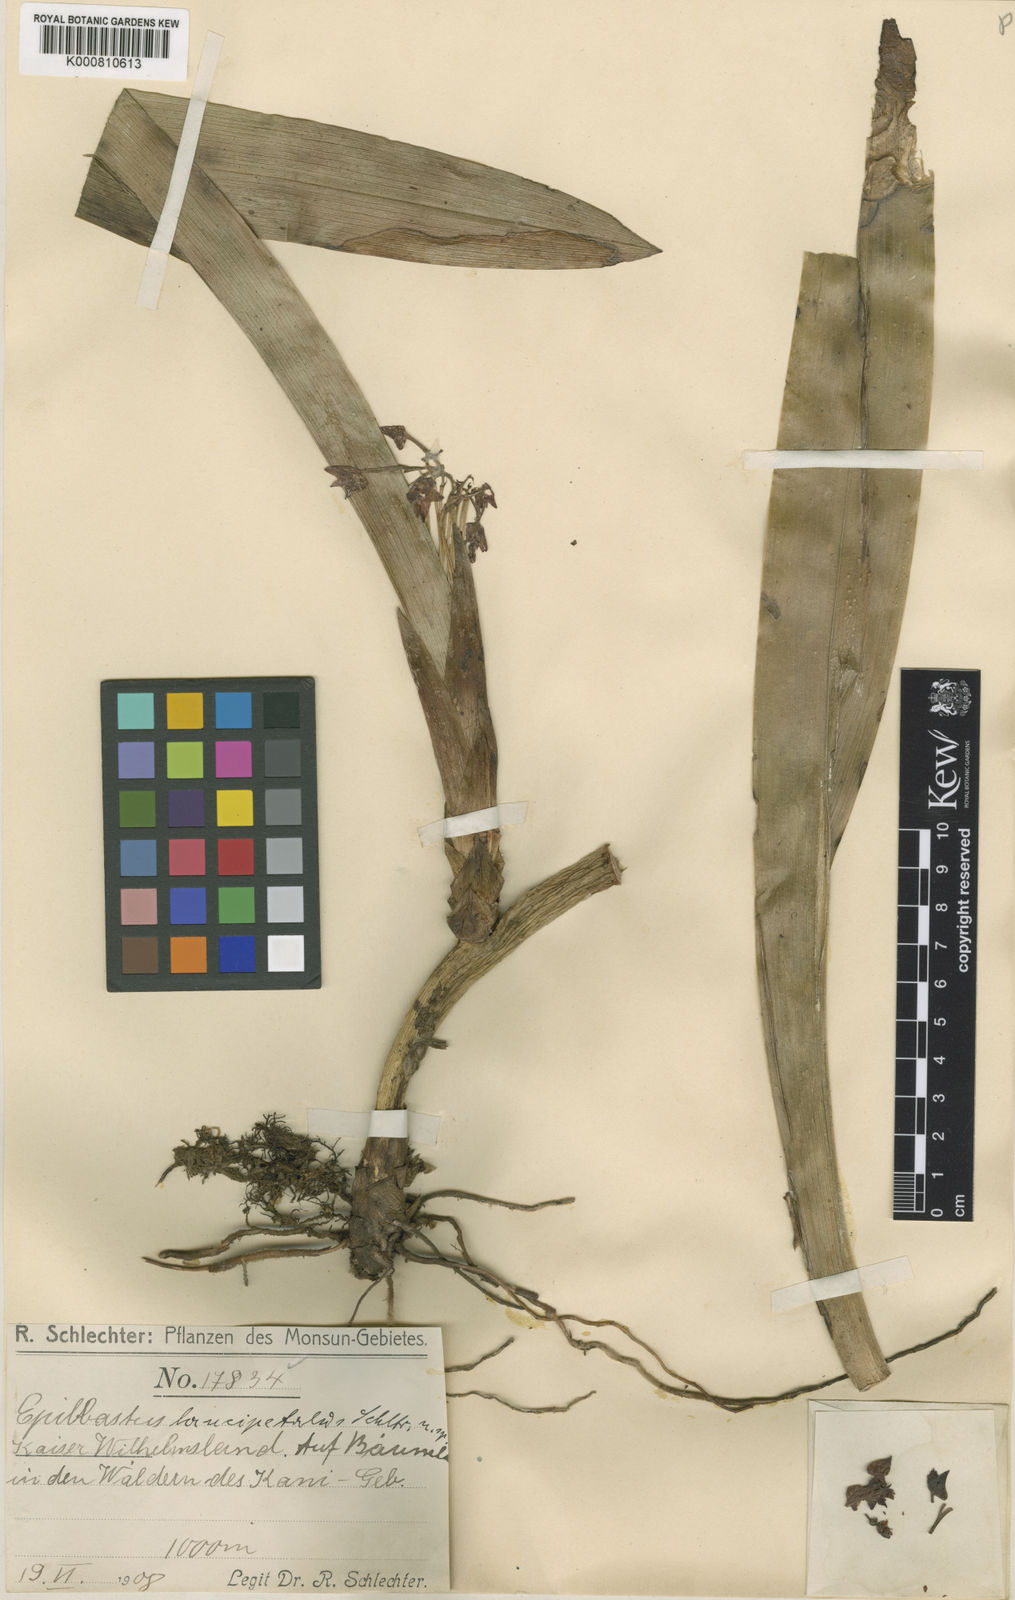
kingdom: Plantae
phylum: Tracheophyta
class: Liliopsida
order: Asparagales
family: Orchidaceae
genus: Epiblastus
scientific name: Epiblastus basalis
